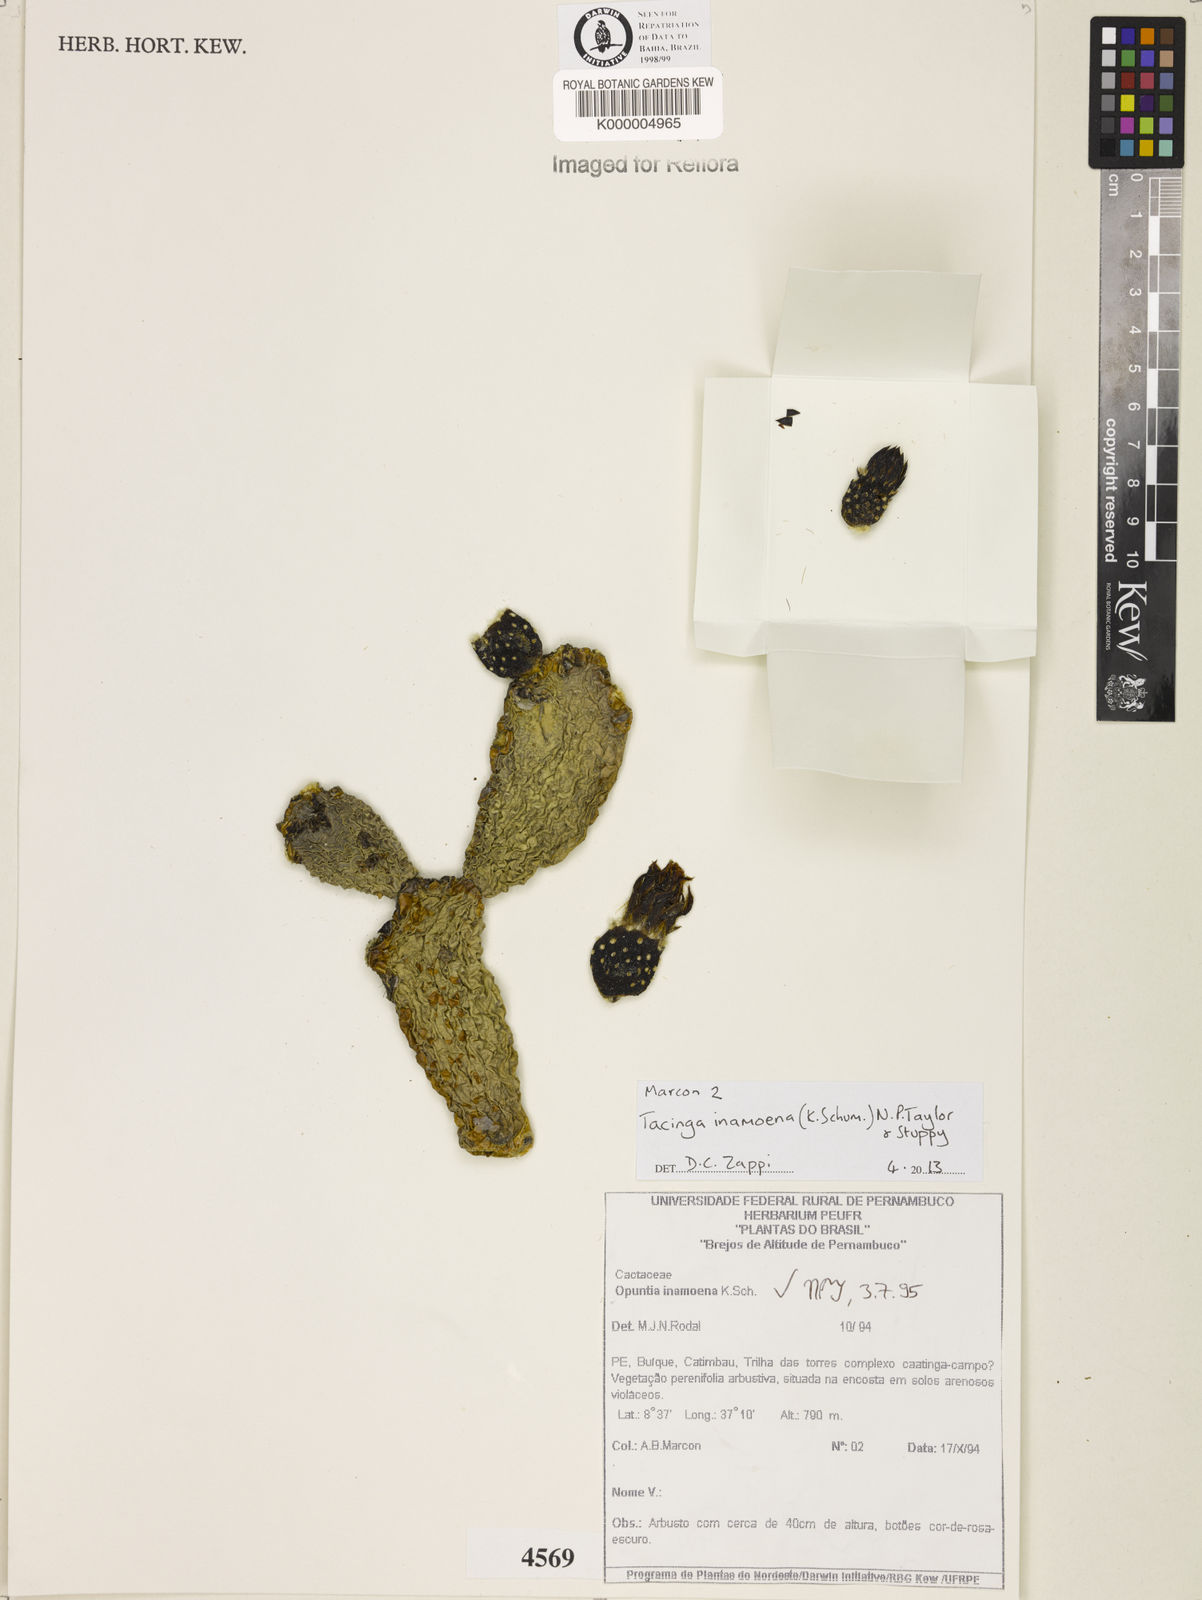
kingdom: Plantae
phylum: Tracheophyta
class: Magnoliopsida
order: Caryophyllales
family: Cactaceae
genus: Tacinga
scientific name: Tacinga inamoena
